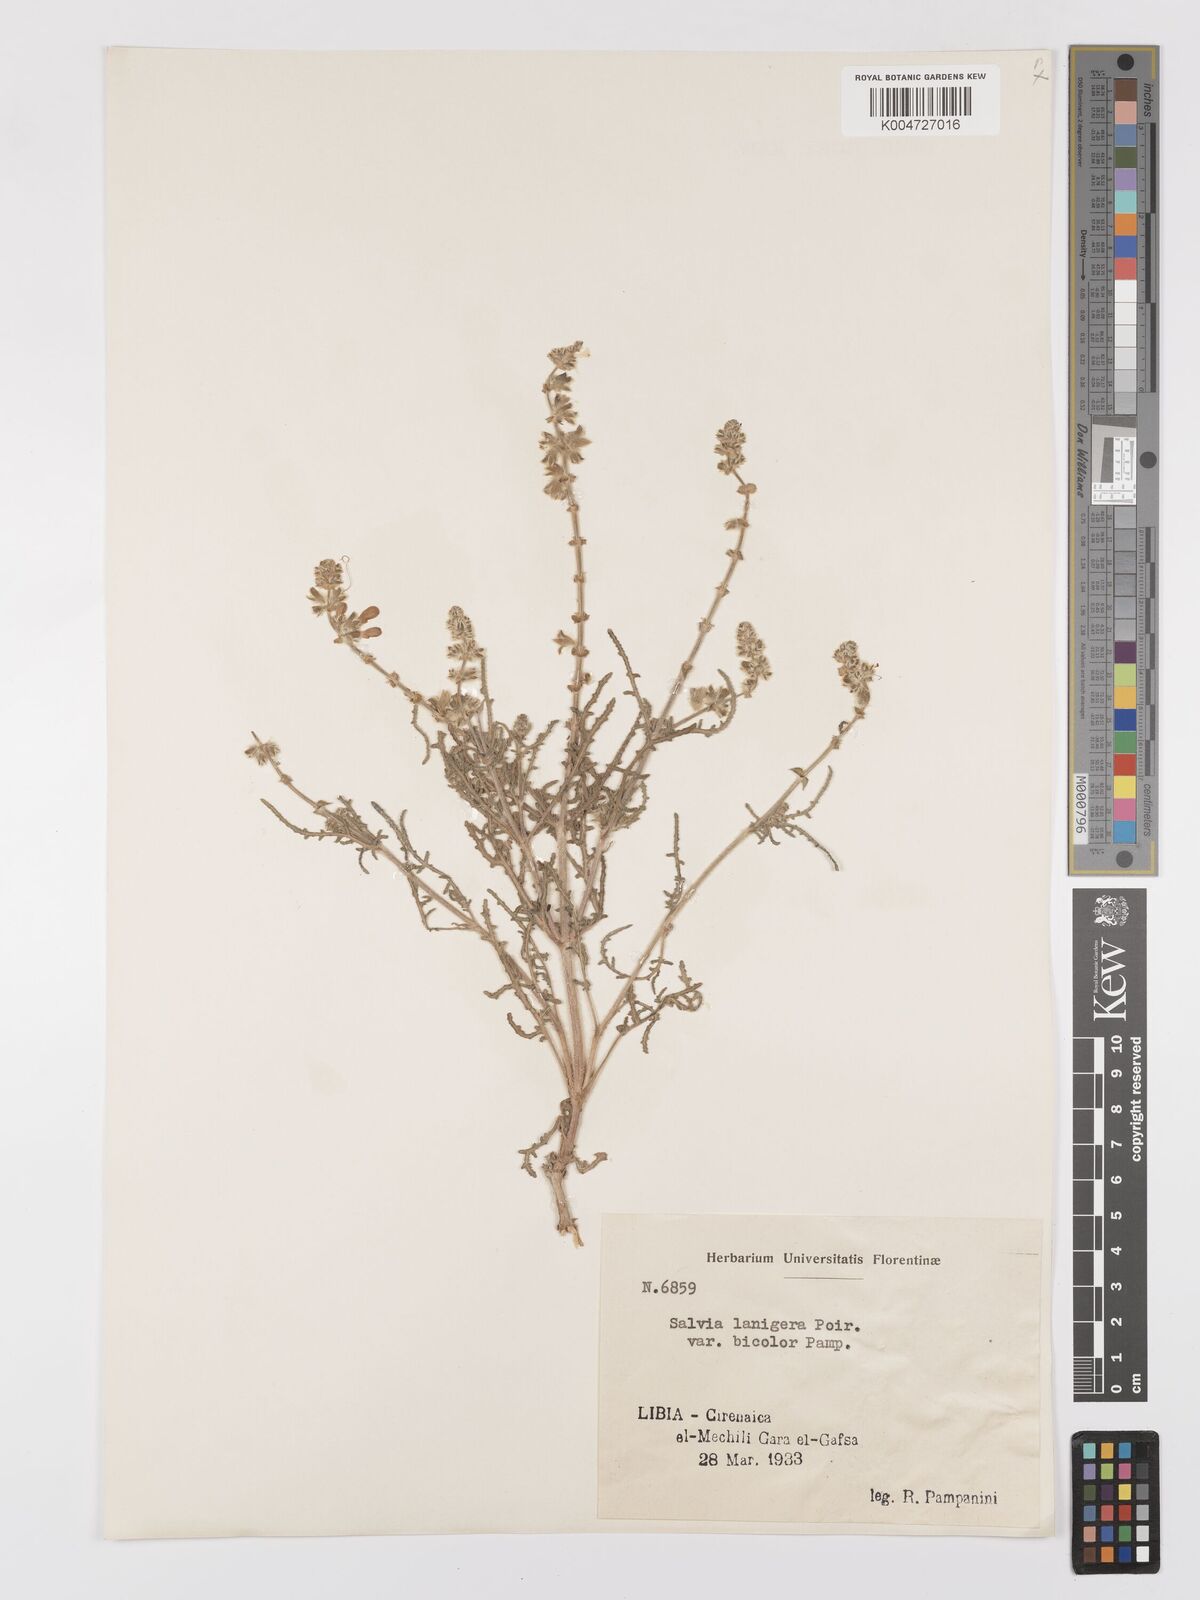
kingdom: Plantae
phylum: Tracheophyta
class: Magnoliopsida
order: Lamiales
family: Lamiaceae
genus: Salvia
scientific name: Salvia lanigera
